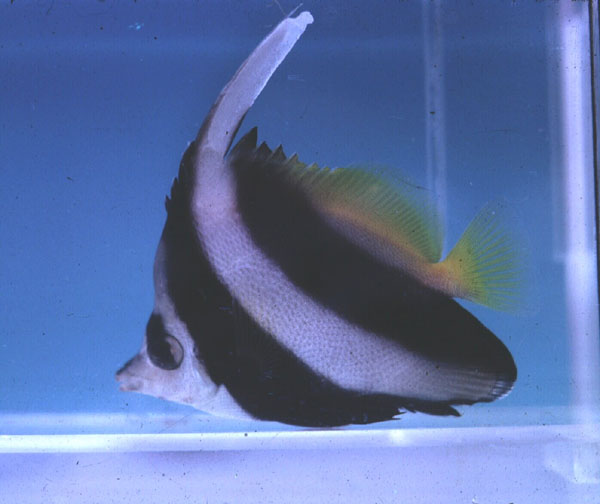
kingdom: Animalia
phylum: Chordata
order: Perciformes
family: Chaetodontidae
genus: Heniochus
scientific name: Heniochus acuminatus
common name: Pennant coralfish
